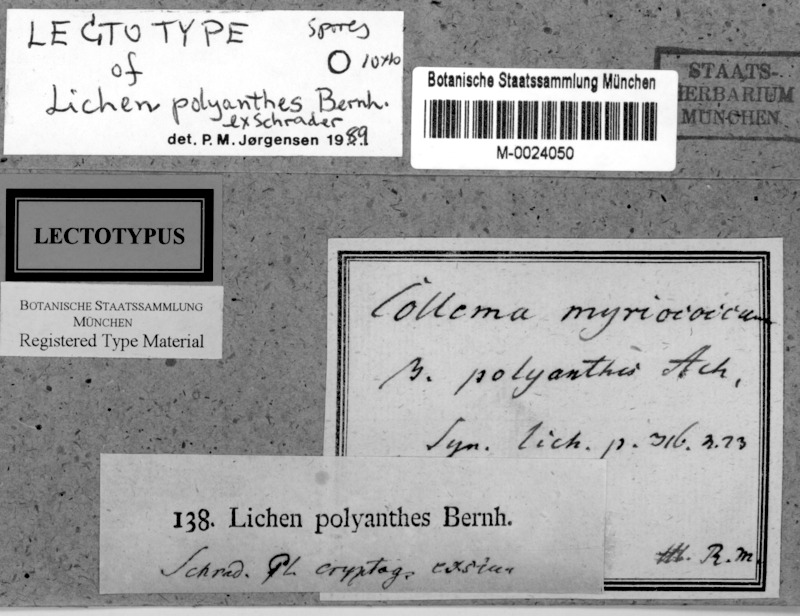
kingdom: Fungi
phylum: Ascomycota
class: Lichinomycetes
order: Lichinales
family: Lichinaceae
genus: Lempholemma
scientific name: Lempholemma polyanthes
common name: Thousand-fruited jelly lichen
